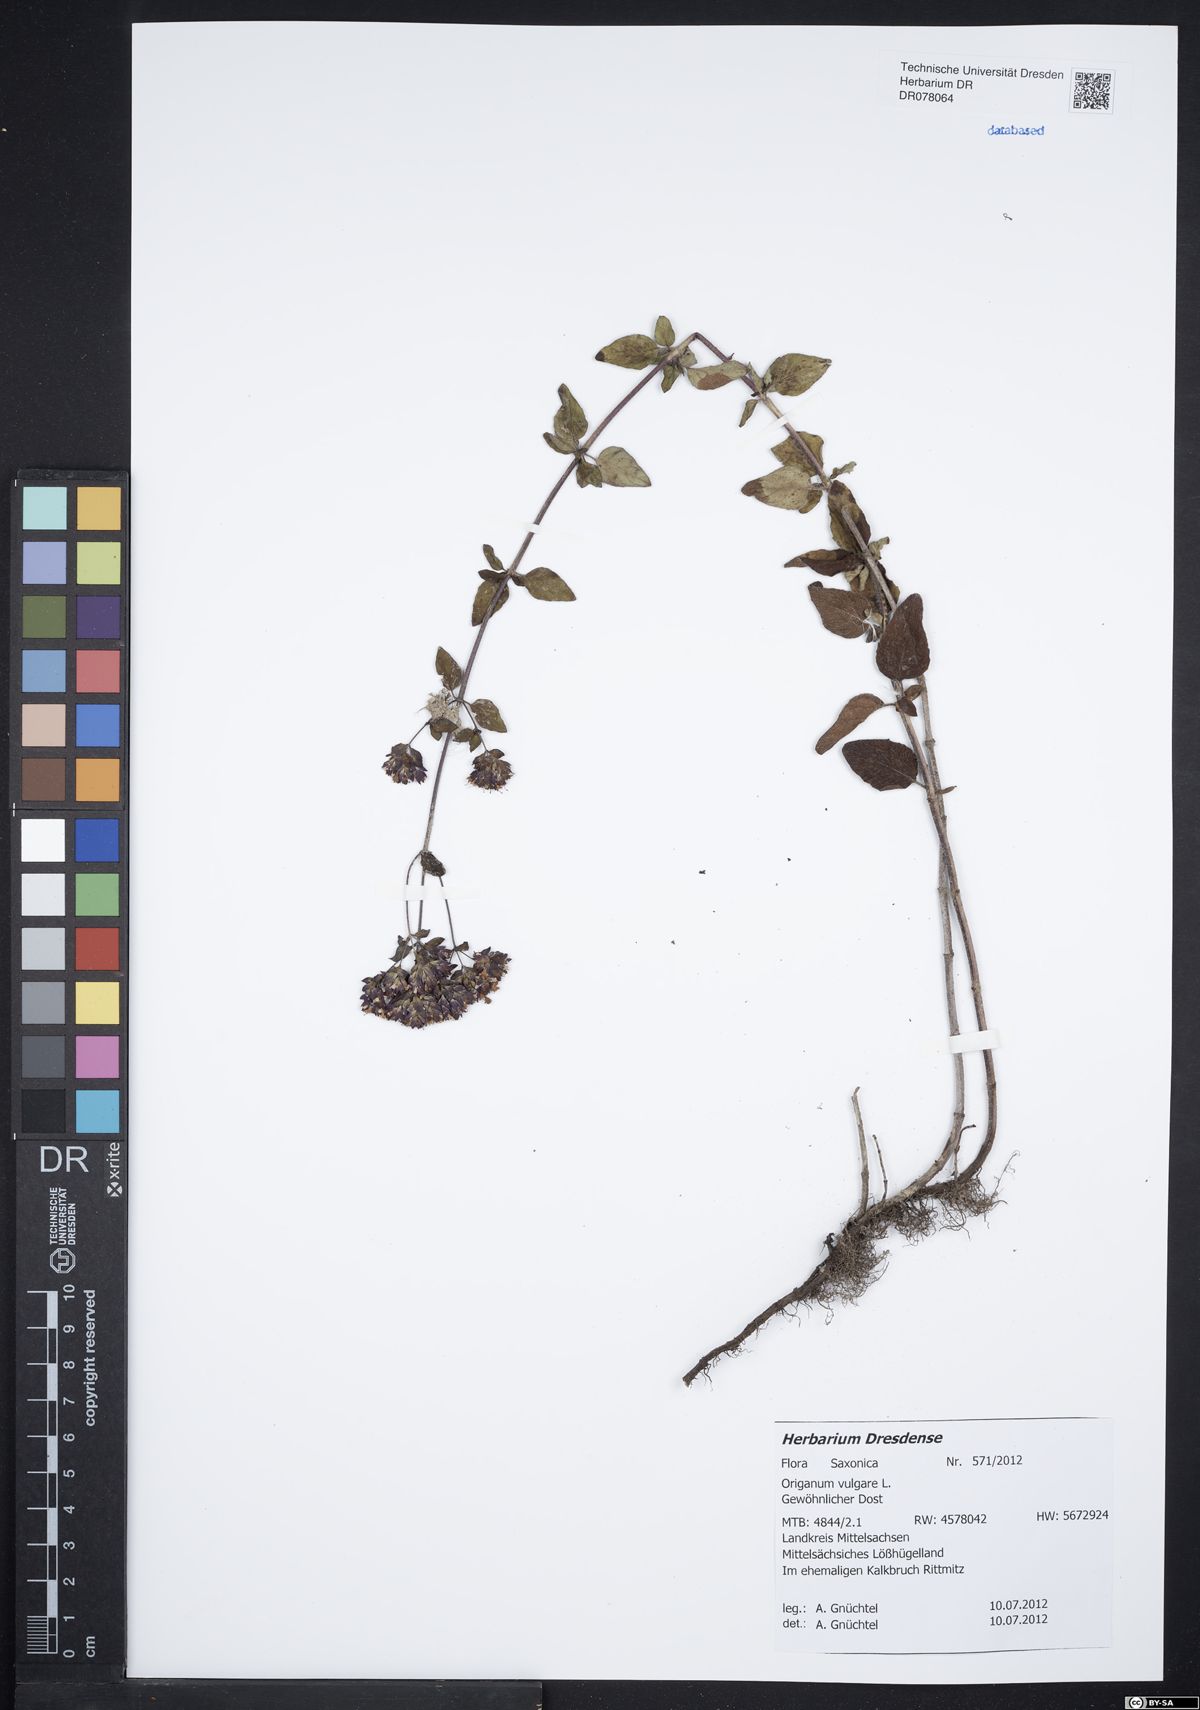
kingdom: Plantae
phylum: Tracheophyta
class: Magnoliopsida
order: Lamiales
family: Lamiaceae
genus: Origanum
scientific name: Origanum vulgare
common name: Wild marjoram
